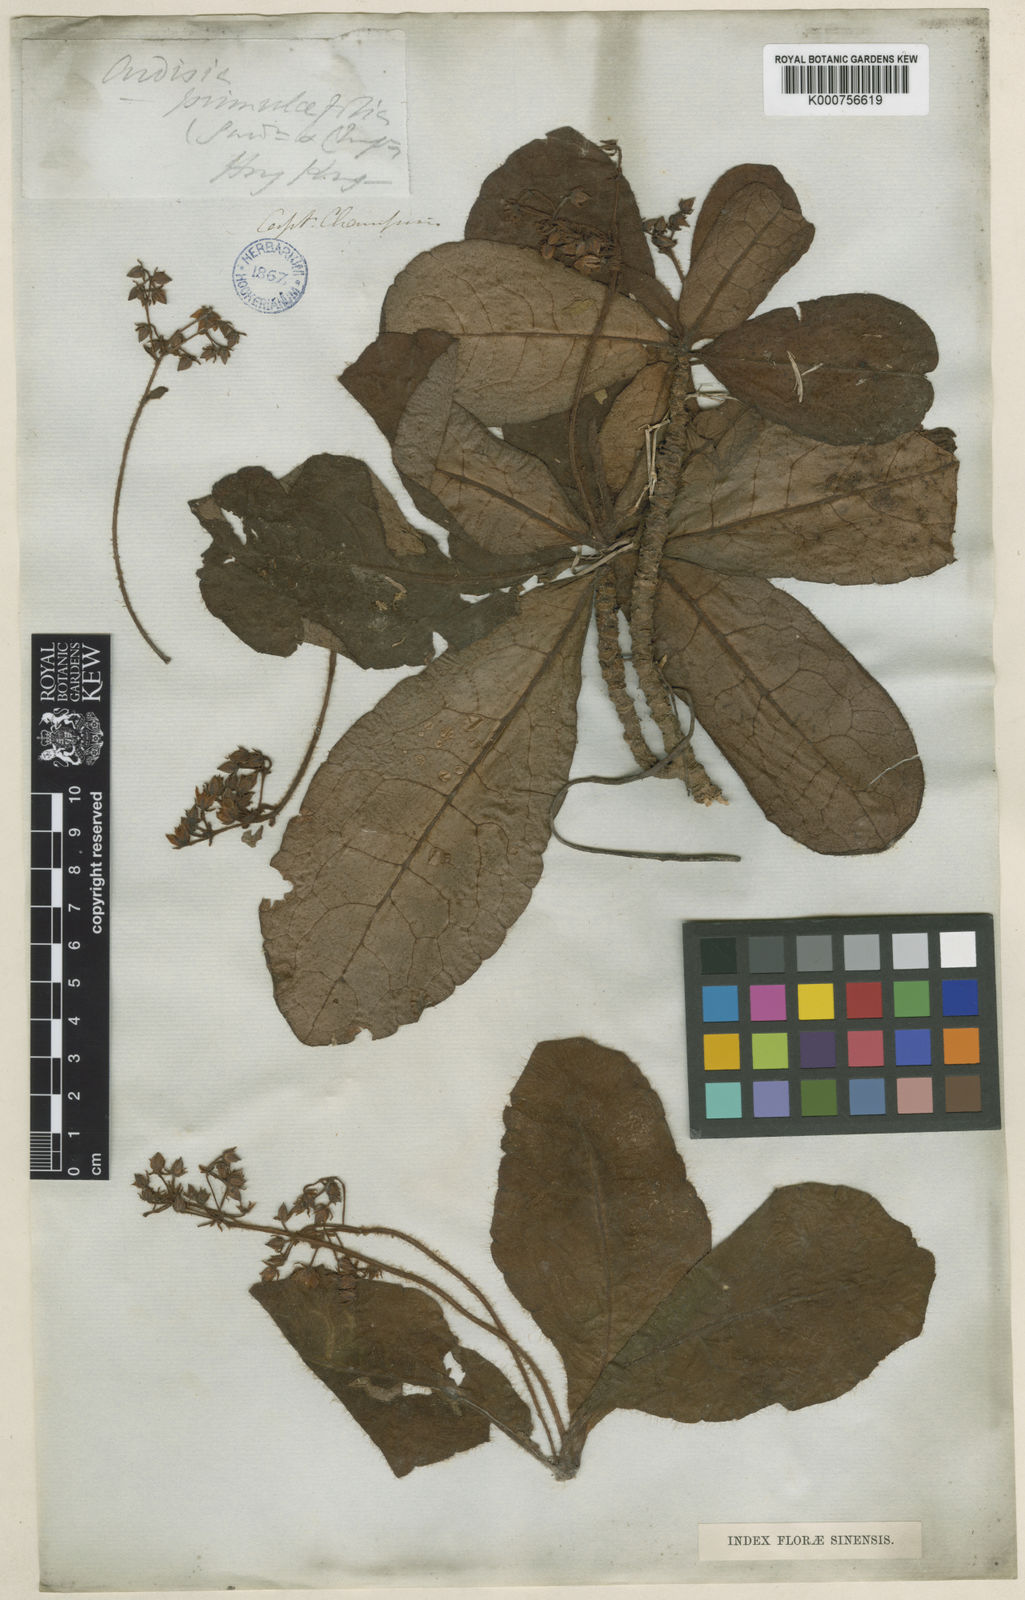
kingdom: Plantae
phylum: Tracheophyta
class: Magnoliopsida
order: Ericales
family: Primulaceae
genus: Ardisia
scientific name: Ardisia primulifolia
